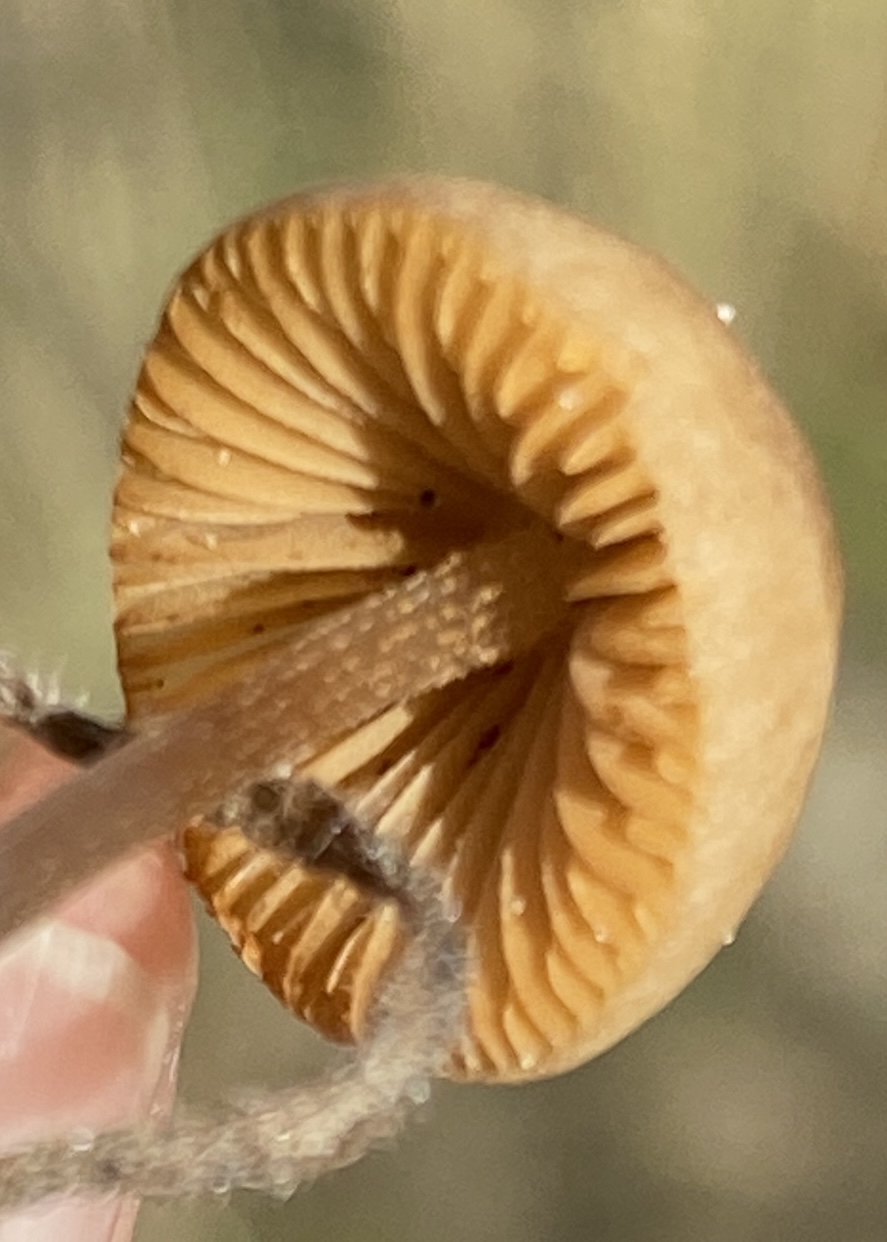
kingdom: Fungi
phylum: Basidiomycota
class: Agaricomycetes
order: Agaricales
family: Bolbitiaceae
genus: Conocybe
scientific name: Conocybe
